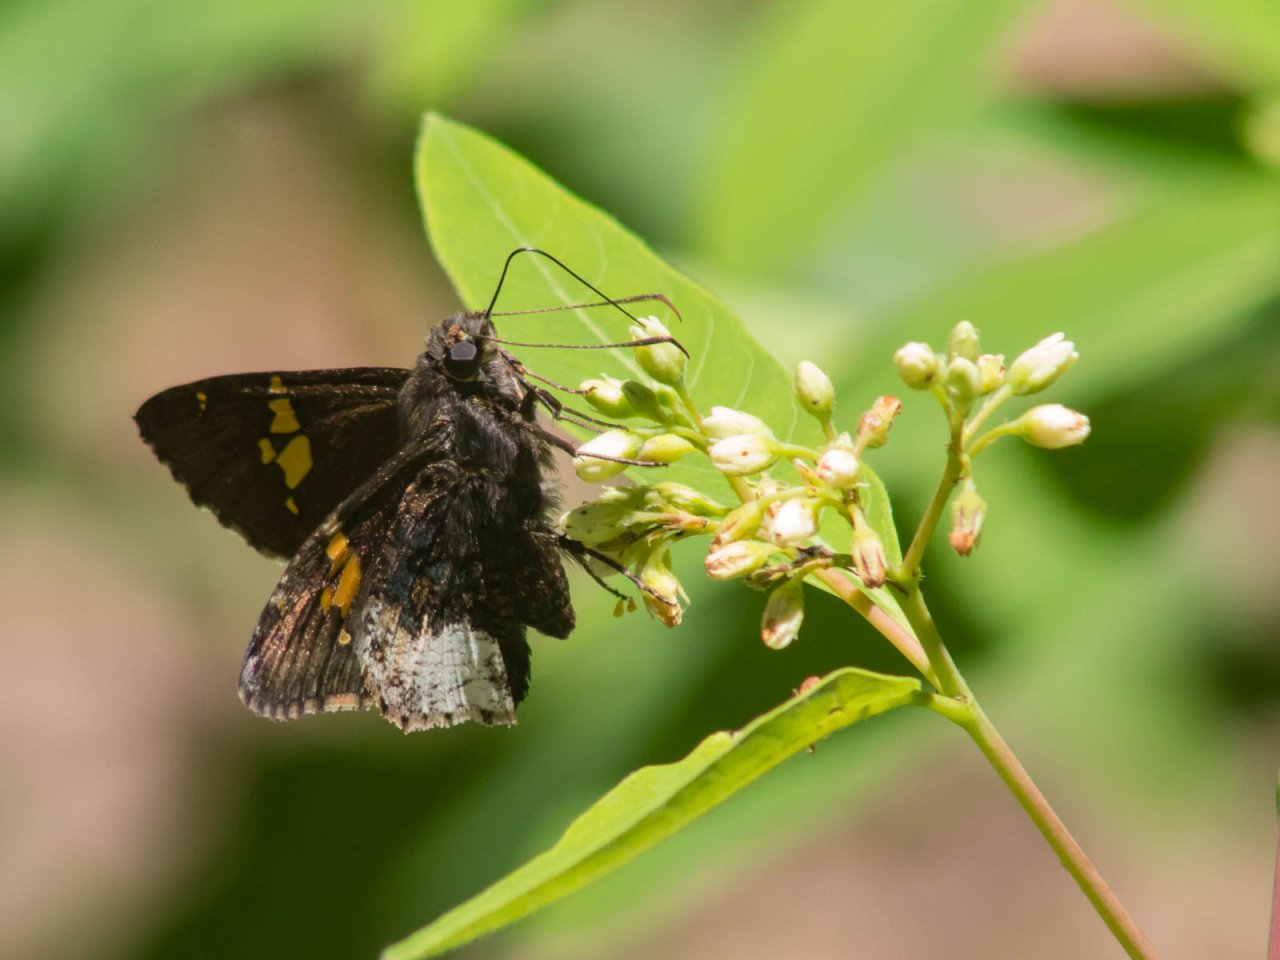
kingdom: Animalia
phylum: Arthropoda
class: Insecta
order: Lepidoptera
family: Hesperiidae
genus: Achalarus
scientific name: Achalarus lyciades
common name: Hoary Edge
